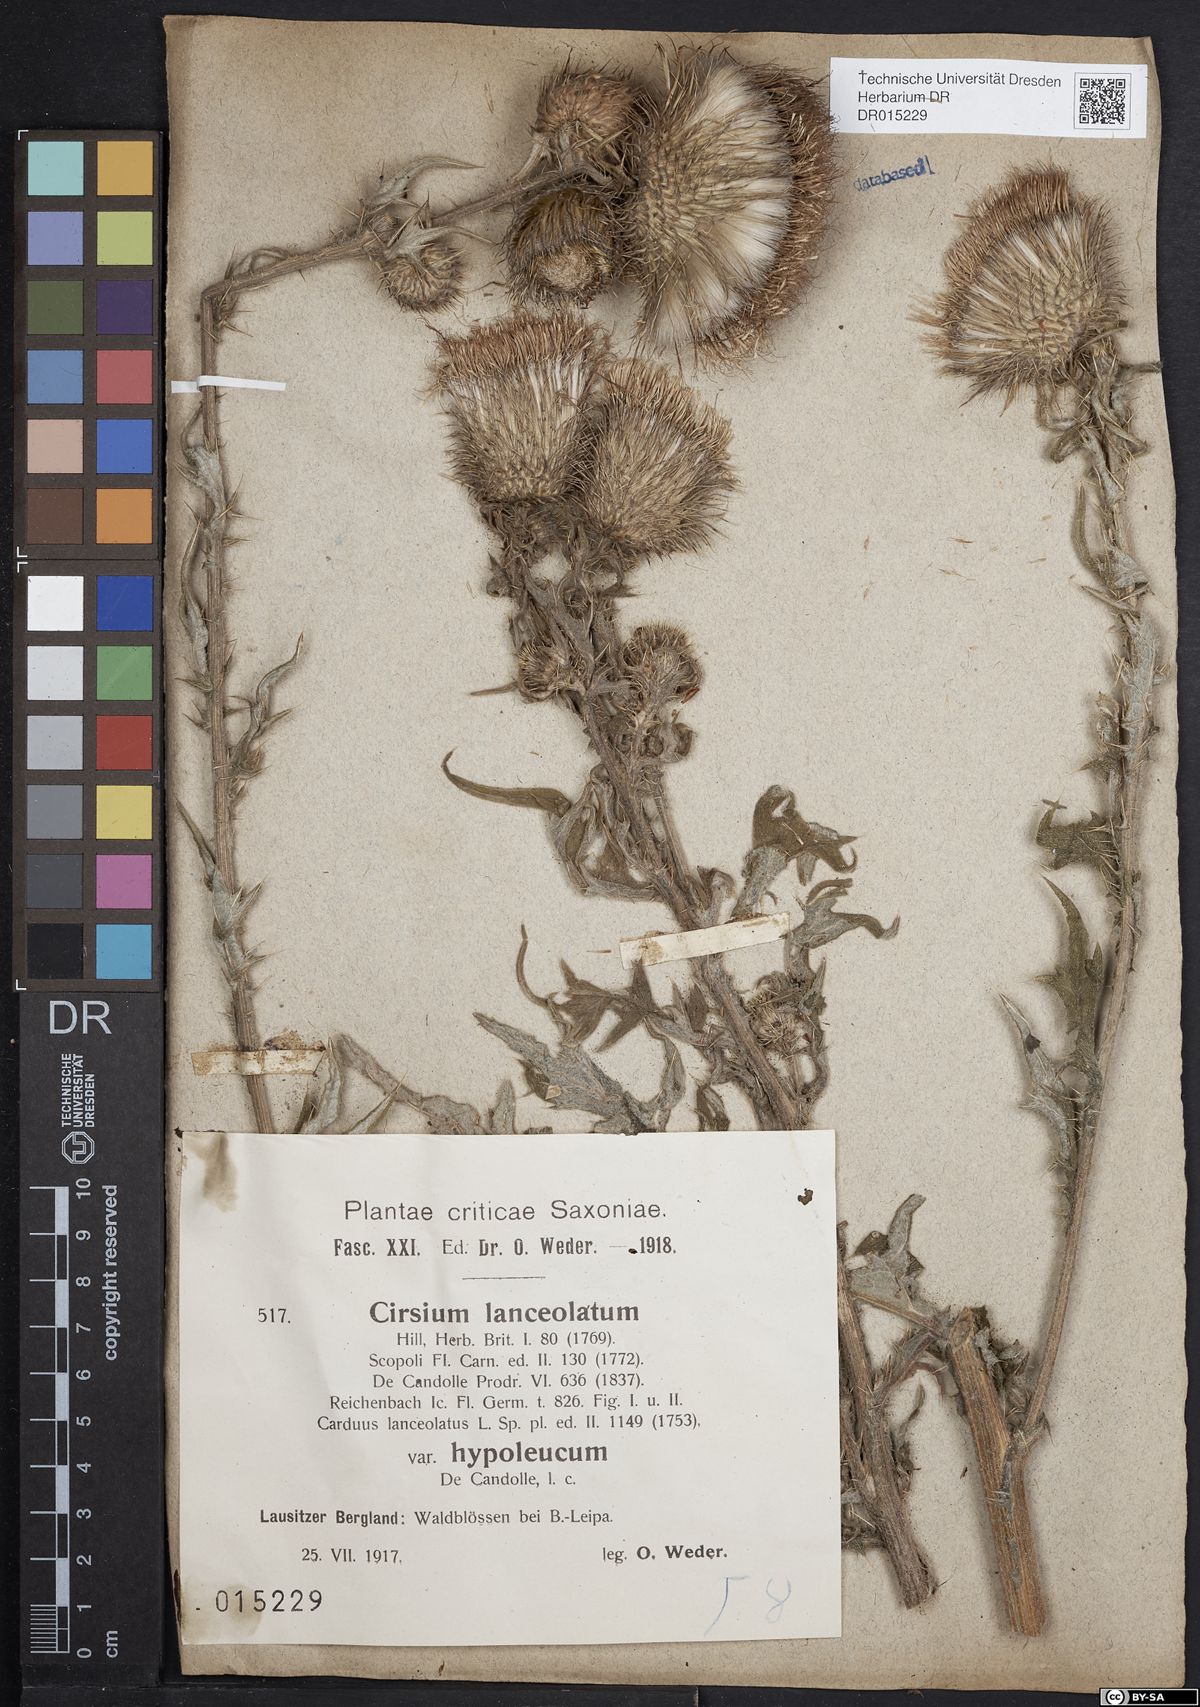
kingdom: Plantae
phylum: Tracheophyta
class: Magnoliopsida
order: Asterales
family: Asteraceae
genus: Cirsium
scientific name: Cirsium vulgare
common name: Bull thistle
